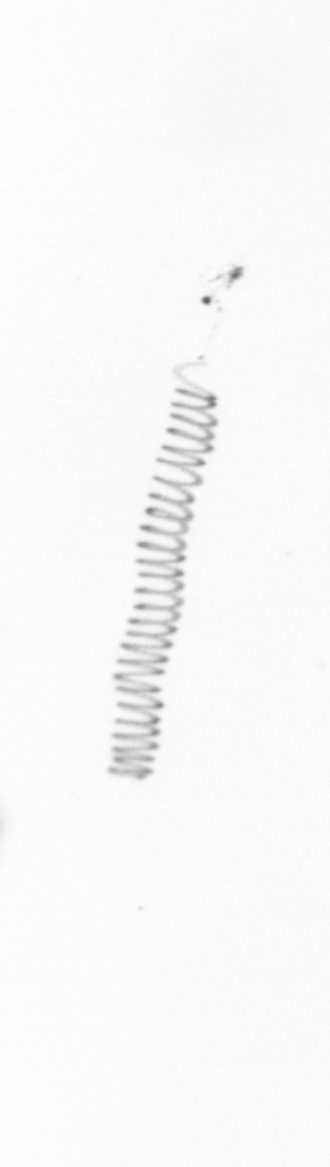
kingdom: Chromista
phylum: Ochrophyta
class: Bacillariophyceae
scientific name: Bacillariophyceae
